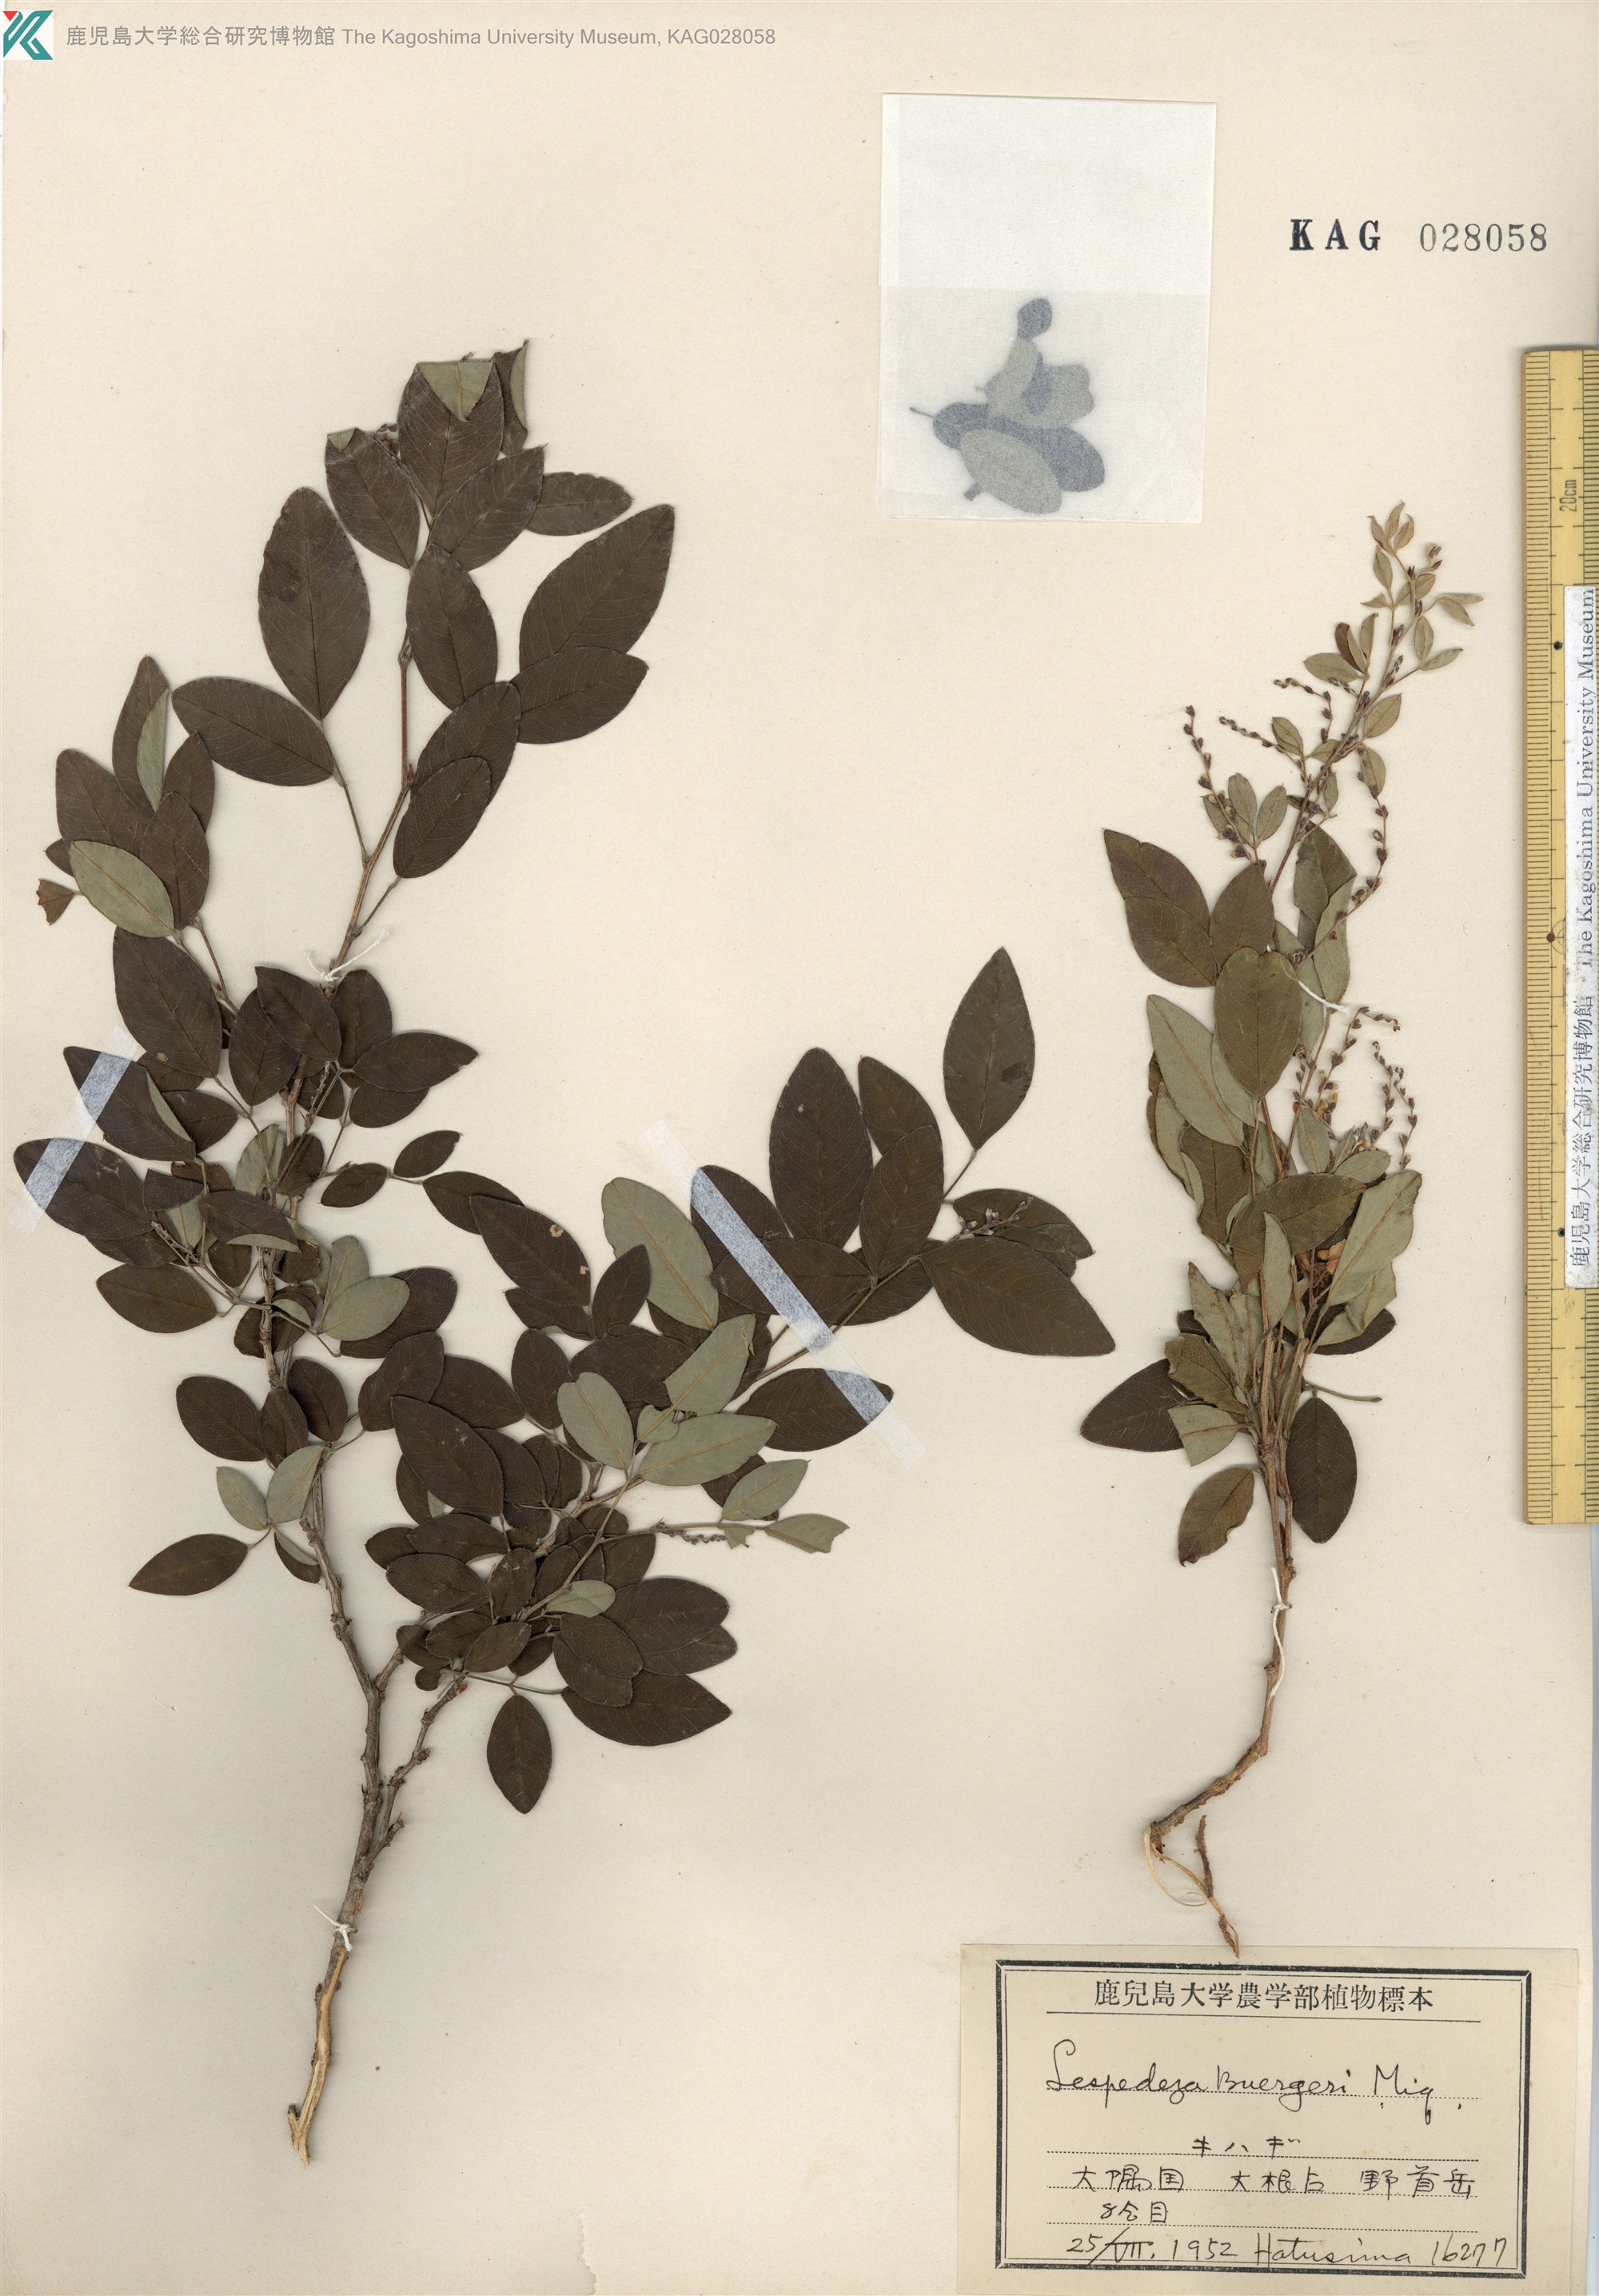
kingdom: Plantae
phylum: Tracheophyta
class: Magnoliopsida
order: Fabales
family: Fabaceae
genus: Lespedeza
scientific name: Lespedeza buergeri
